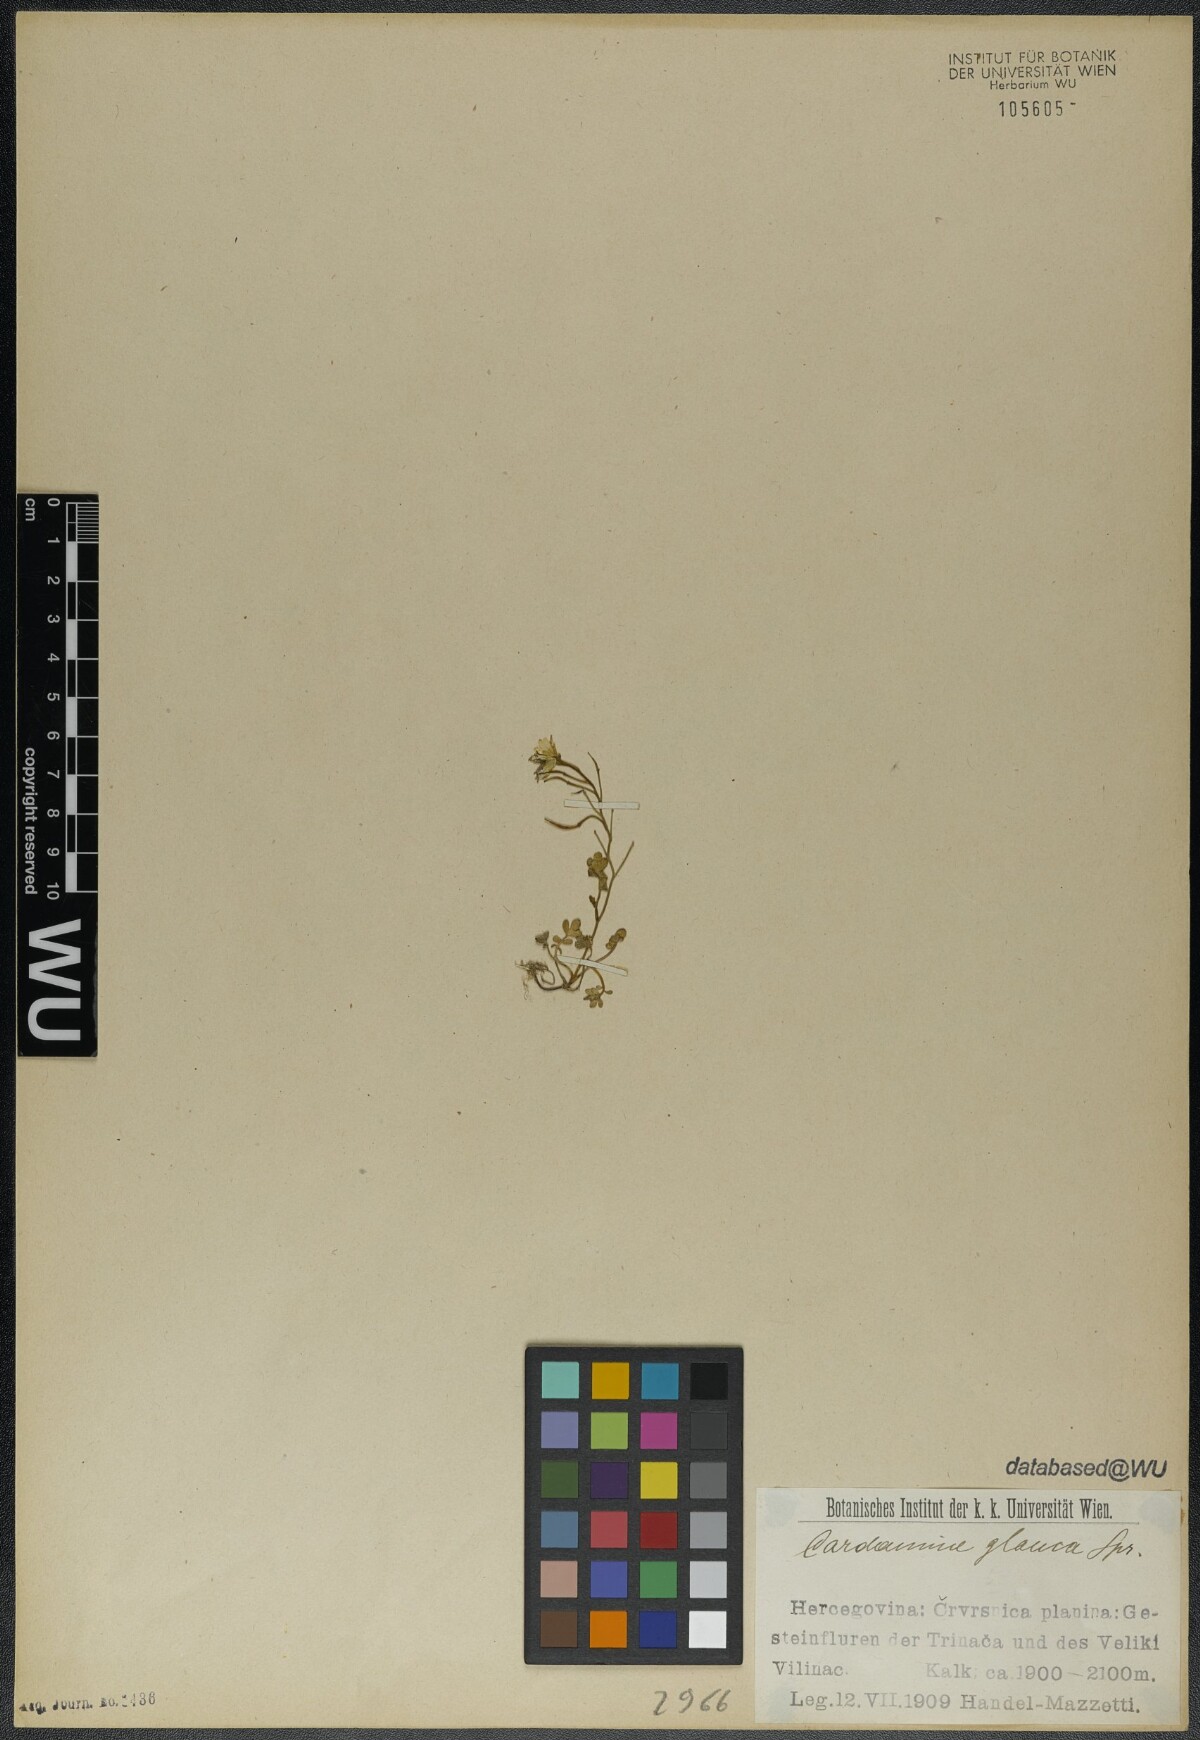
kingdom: Plantae
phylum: Tracheophyta
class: Magnoliopsida
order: Brassicales
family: Brassicaceae
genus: Cardamine
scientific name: Cardamine glauca
